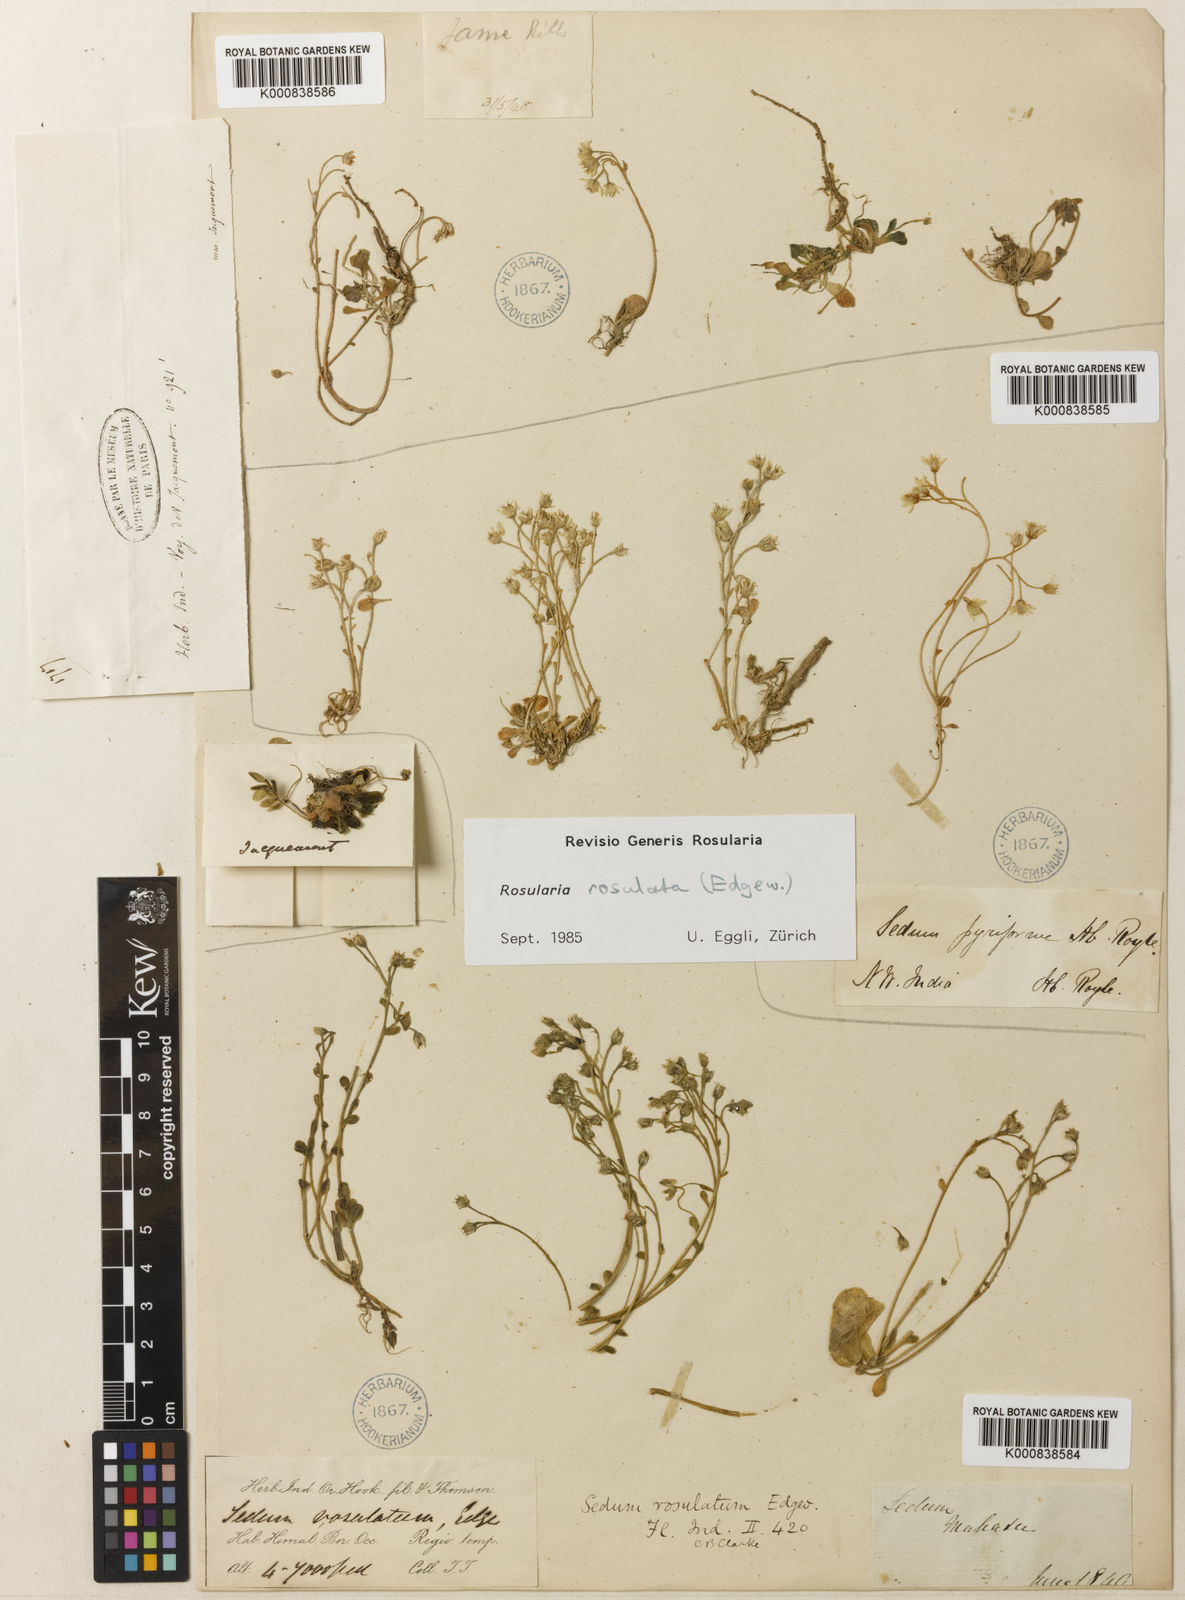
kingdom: Plantae
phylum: Tracheophyta
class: Magnoliopsida
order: Saxifragales
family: Crassulaceae
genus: Rosularia
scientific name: Rosularia rosulata
